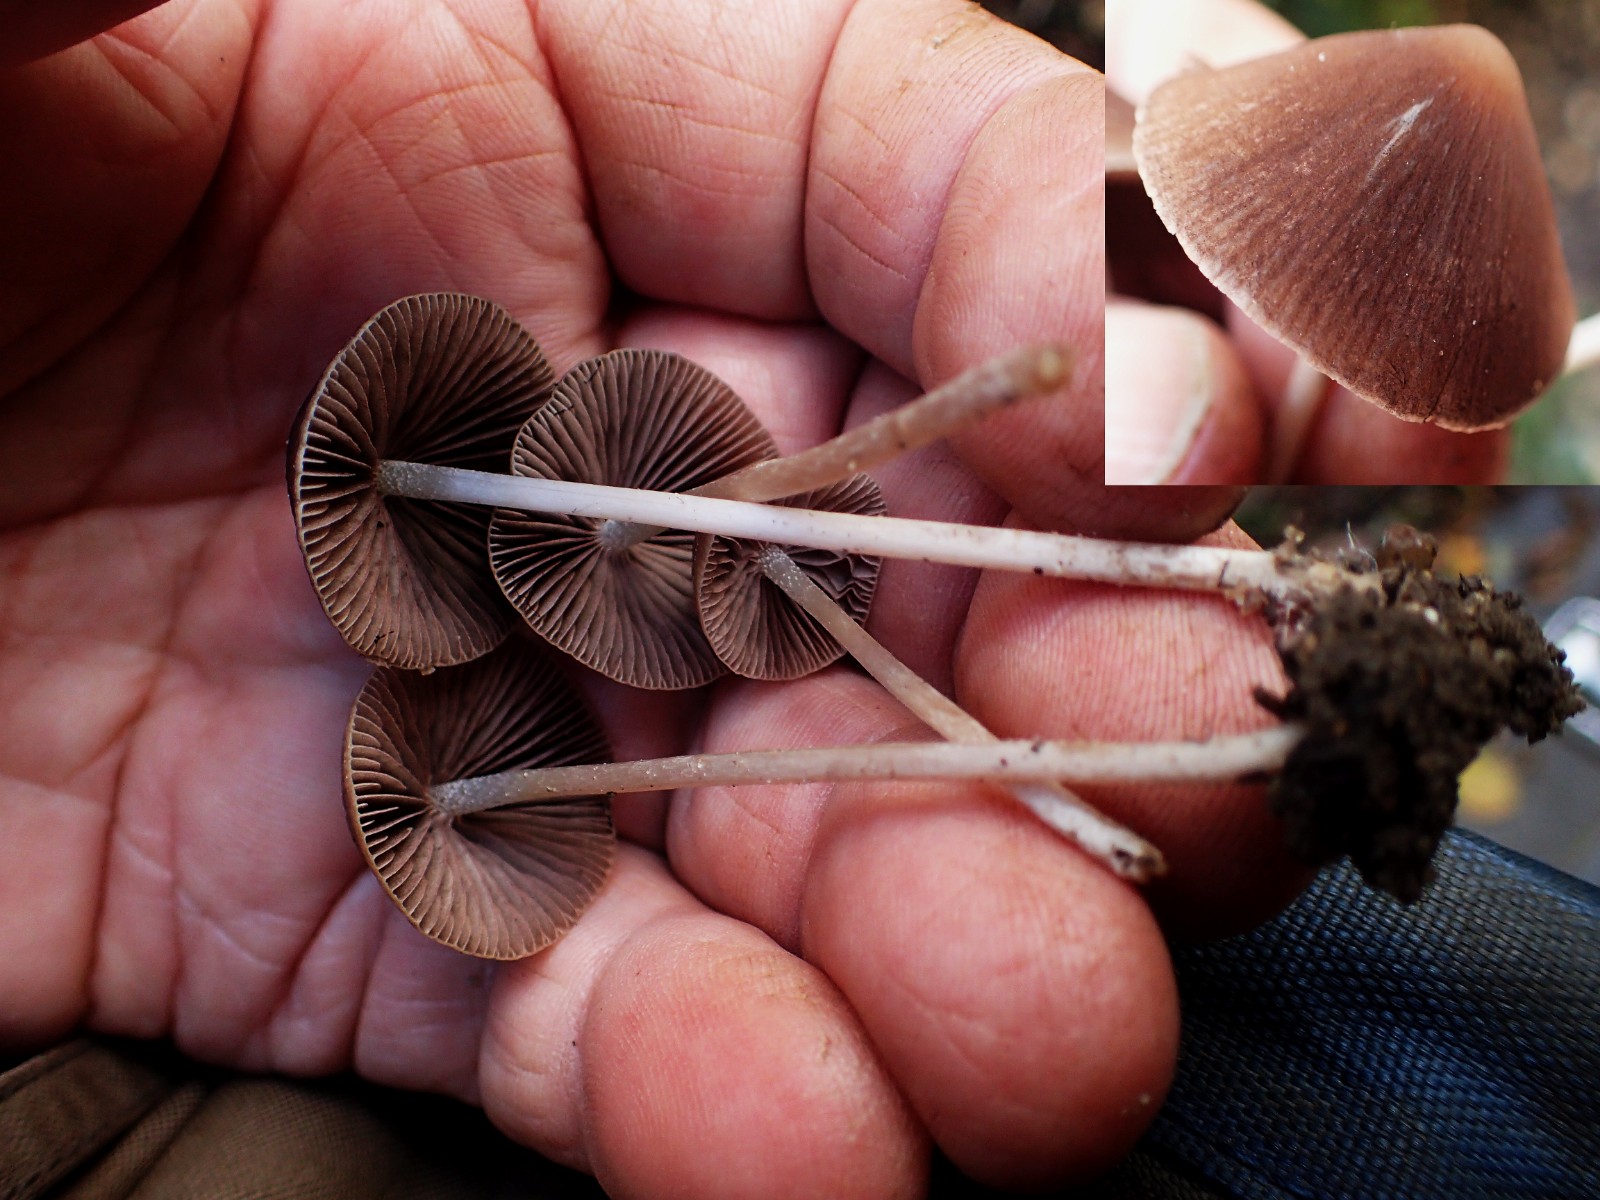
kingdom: Fungi
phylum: Basidiomycota
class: Agaricomycetes
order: Agaricales
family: Psathyrellaceae
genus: Parasola
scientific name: Parasola conopilea
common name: kegle-hjulhat
